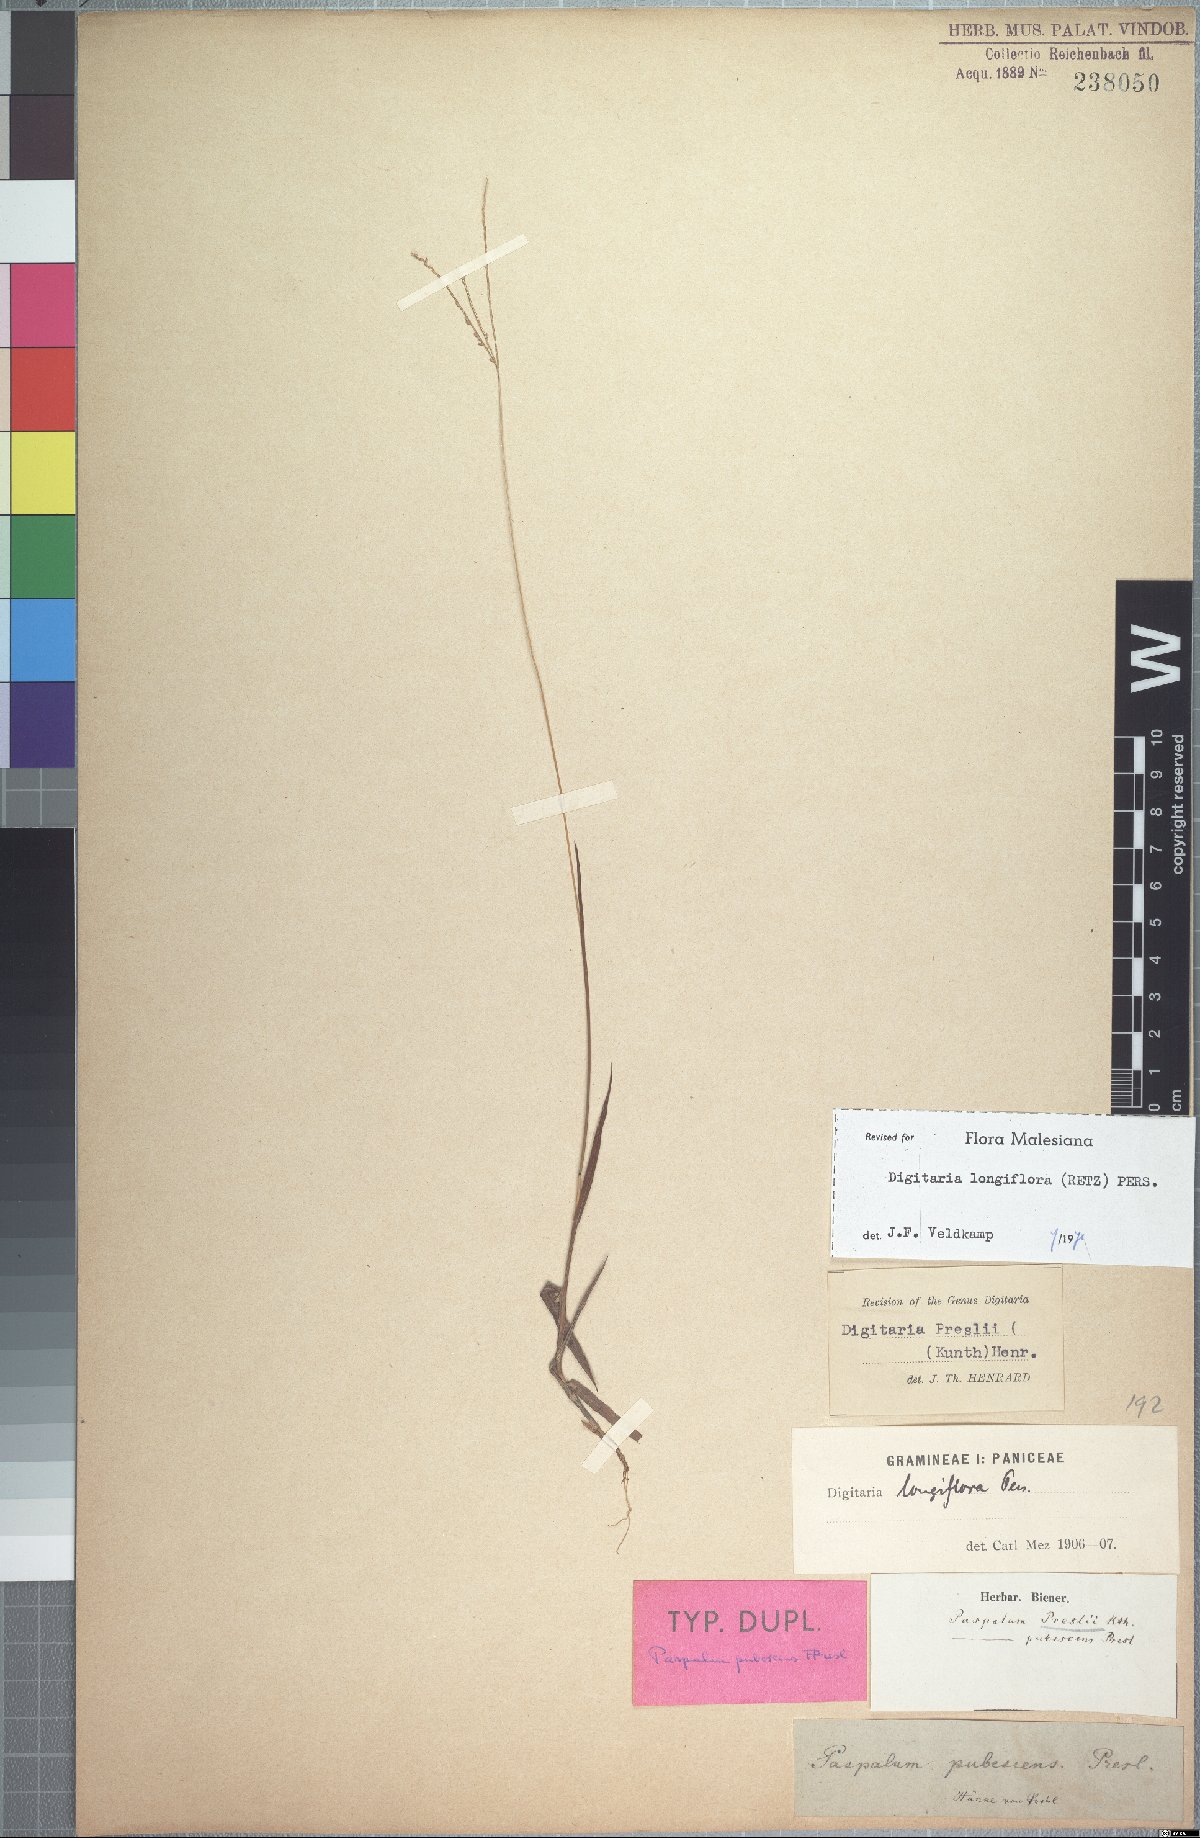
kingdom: Plantae
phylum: Tracheophyta
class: Liliopsida
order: Poales
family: Poaceae
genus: Digitaria
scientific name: Digitaria longiflora
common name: Wire crabgrass
